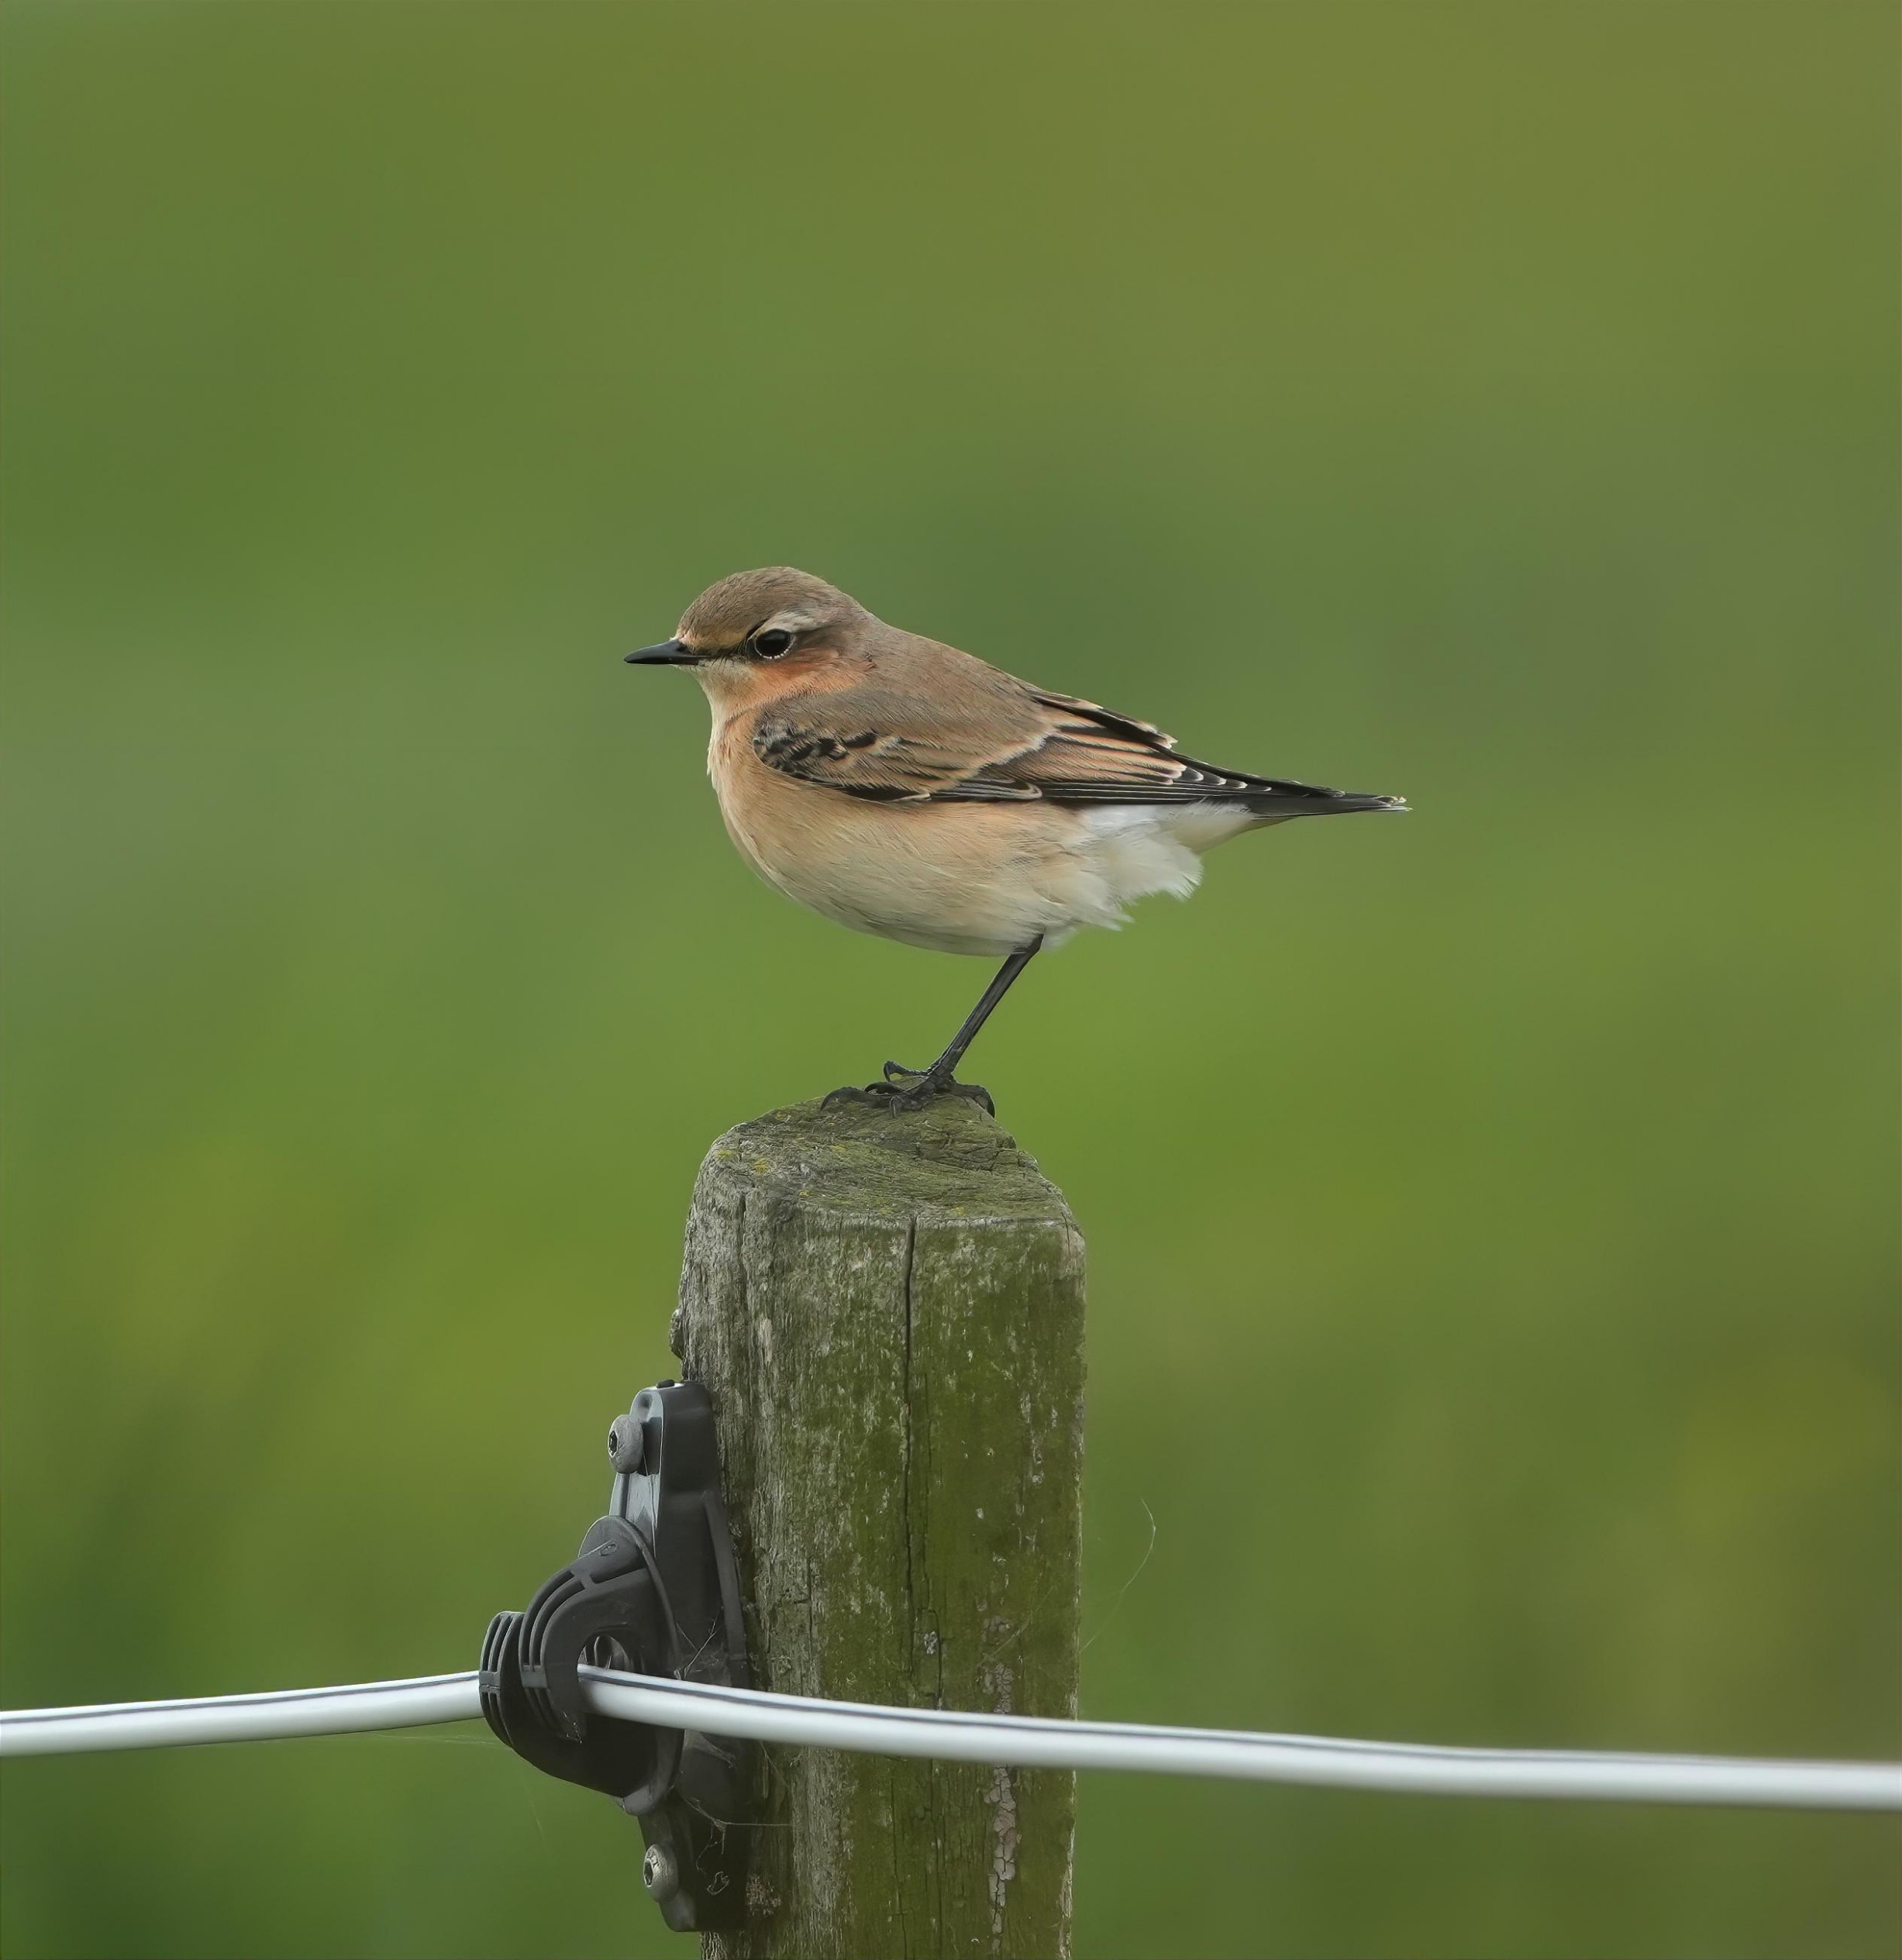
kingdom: Animalia
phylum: Chordata
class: Aves
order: Passeriformes
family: Muscicapidae
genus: Oenanthe
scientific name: Oenanthe oenanthe
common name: Stenpikker
